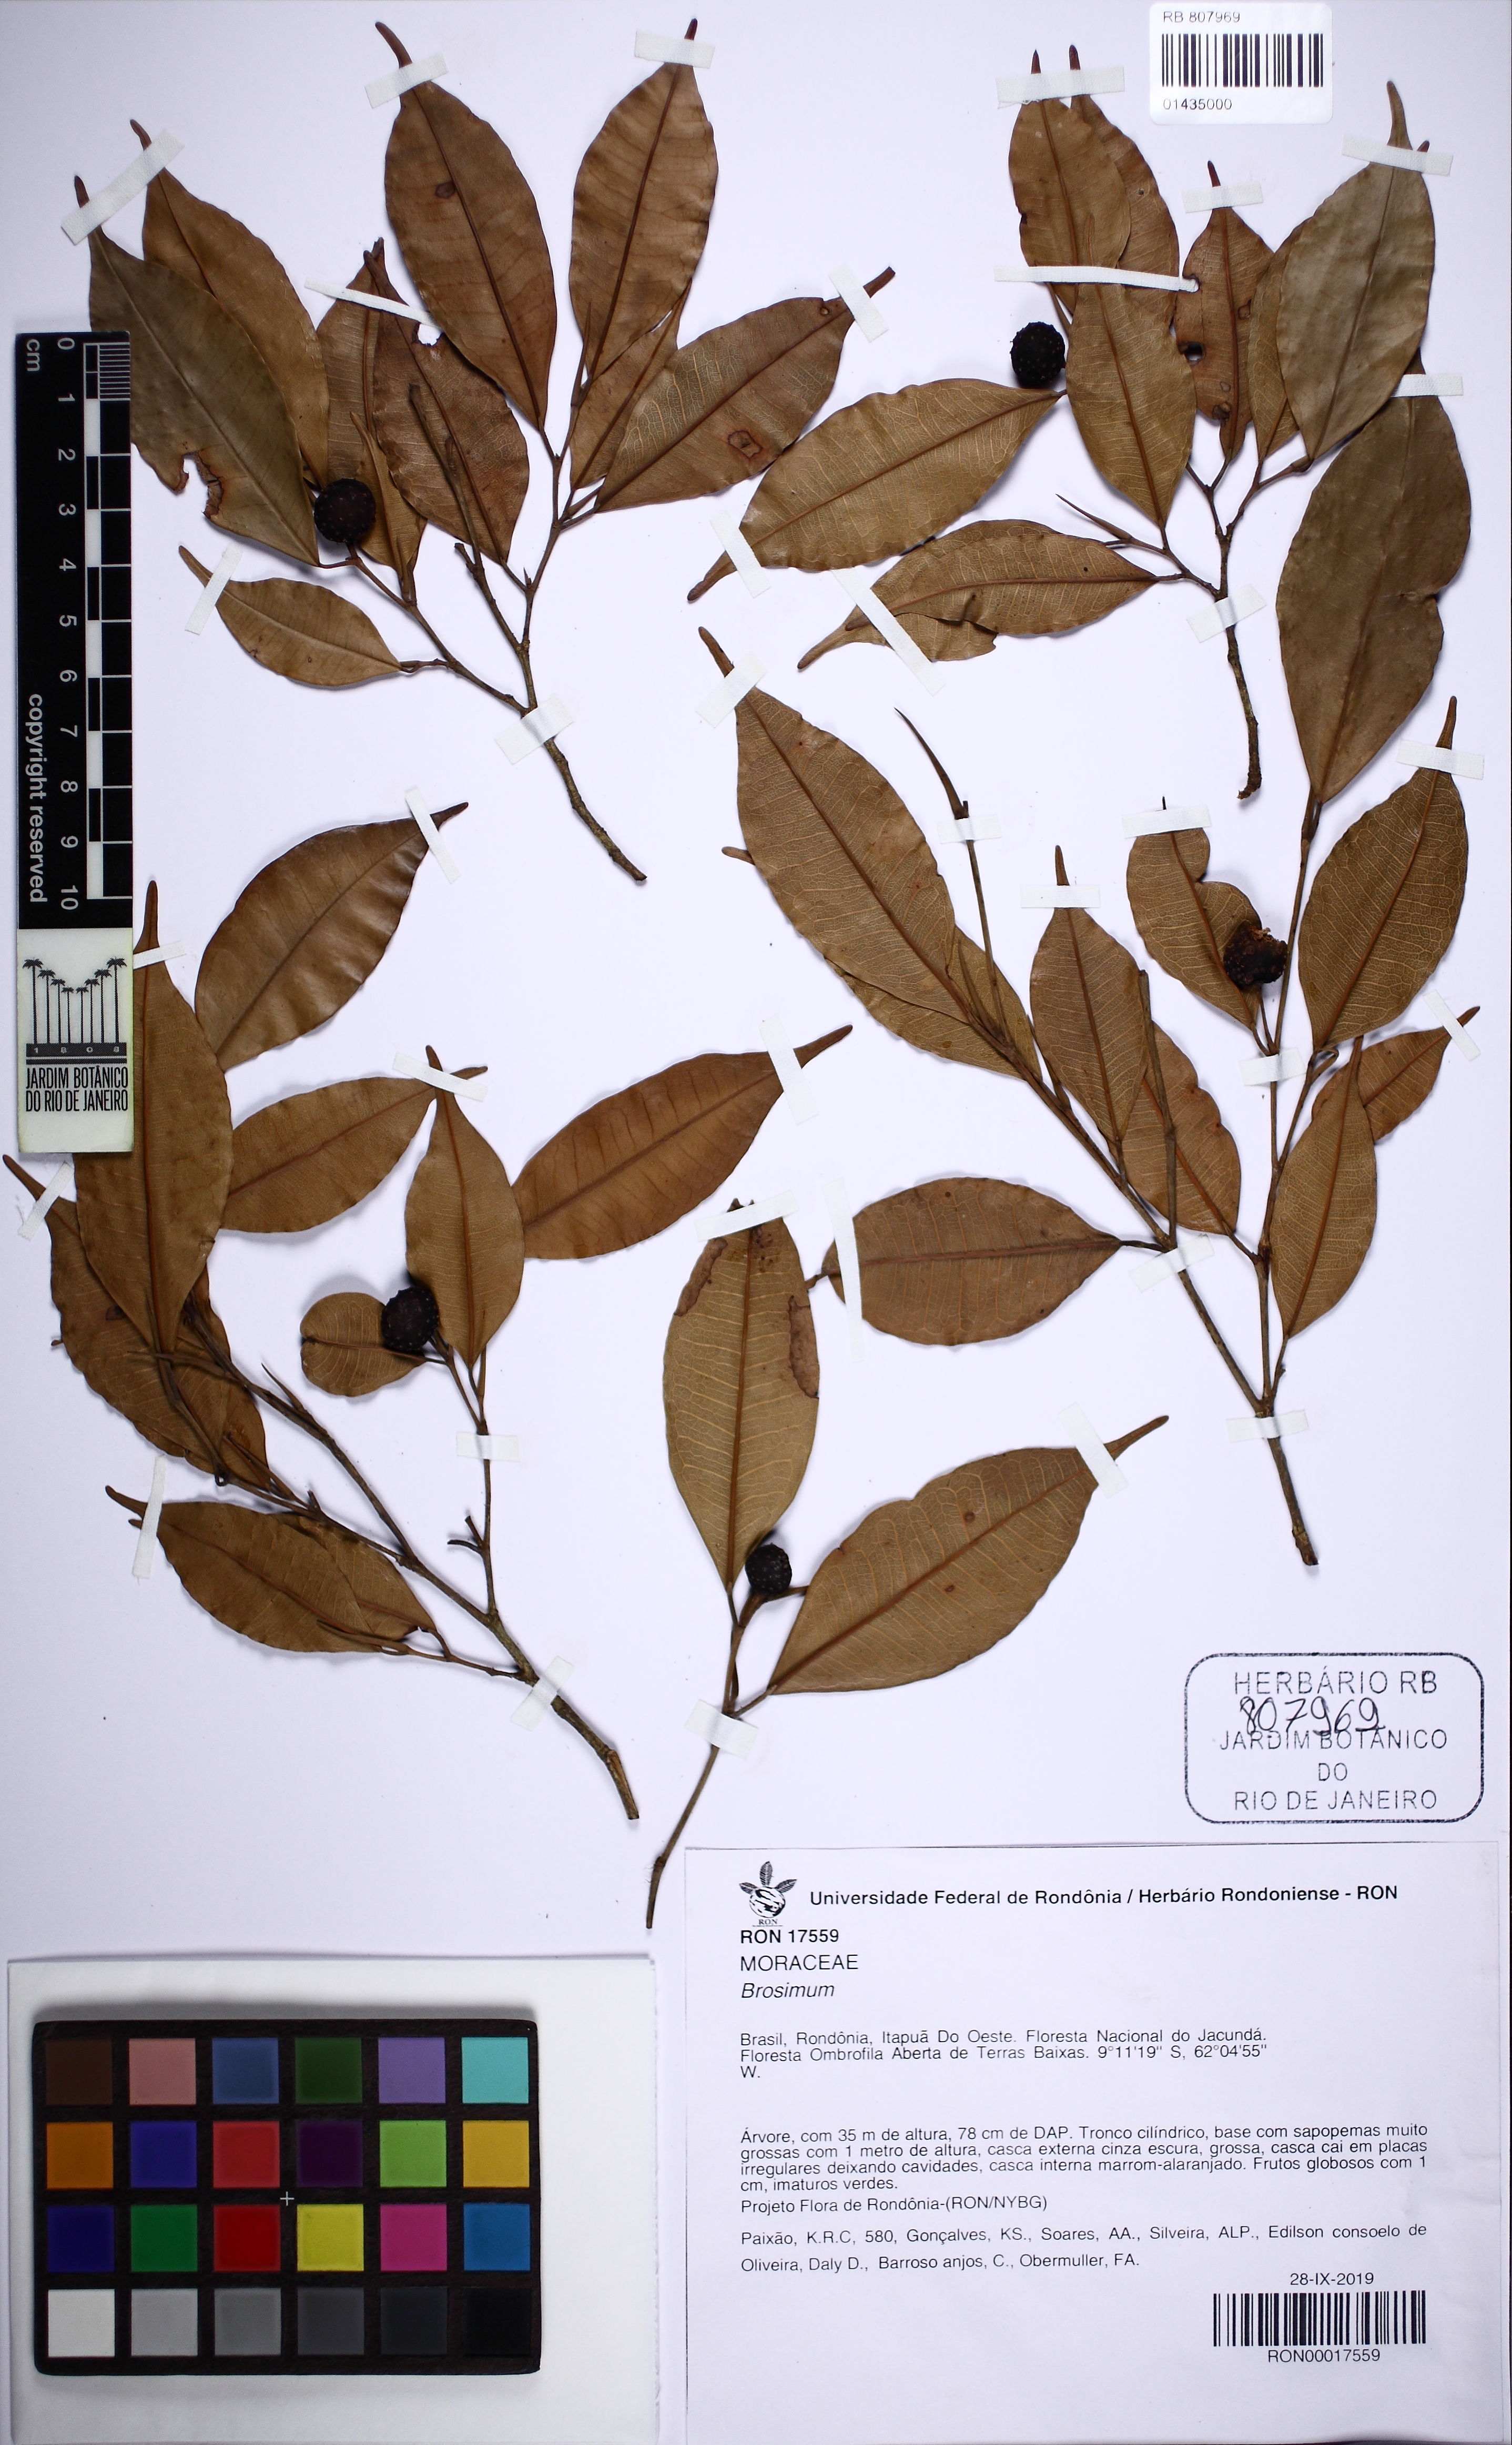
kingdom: Plantae
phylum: Tracheophyta
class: Magnoliopsida
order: Rosales
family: Moraceae
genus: Brosimum
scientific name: Brosimum
